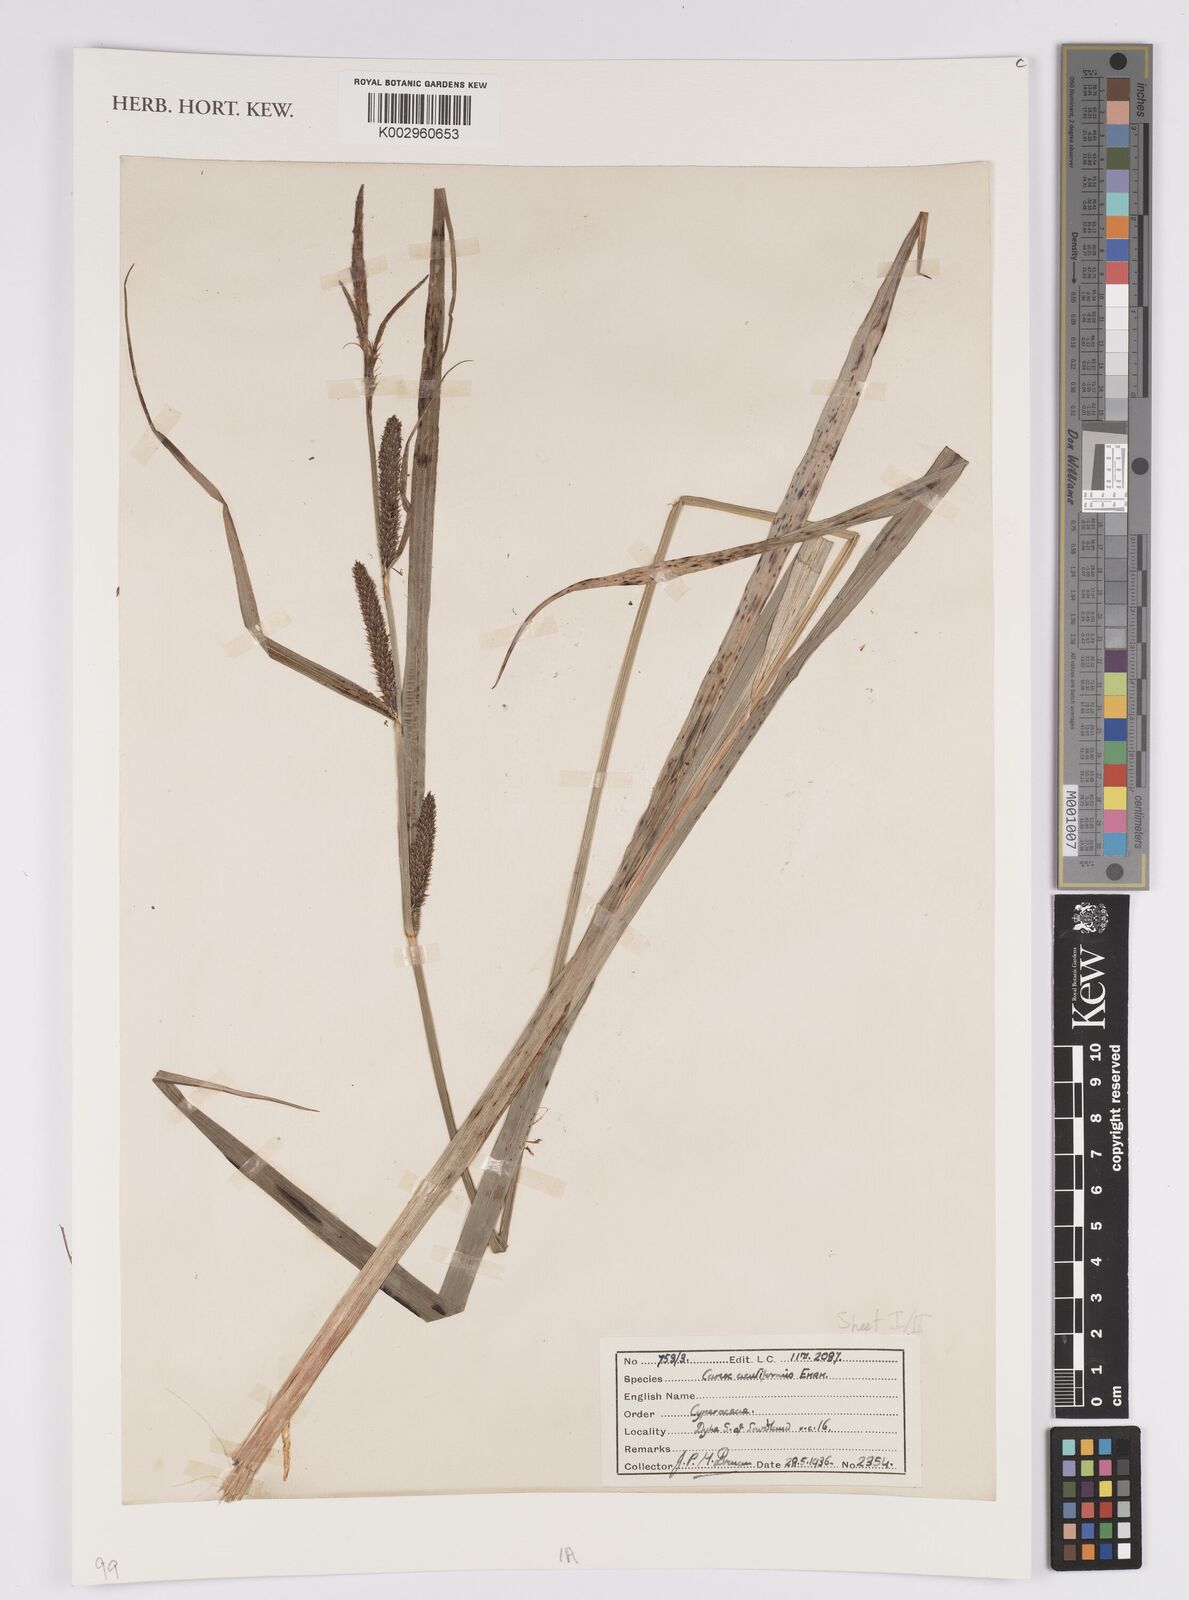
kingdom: Plantae
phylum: Tracheophyta
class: Liliopsida
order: Poales
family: Cyperaceae
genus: Carex
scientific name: Carex acutiformis
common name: Lesser pond-sedge
